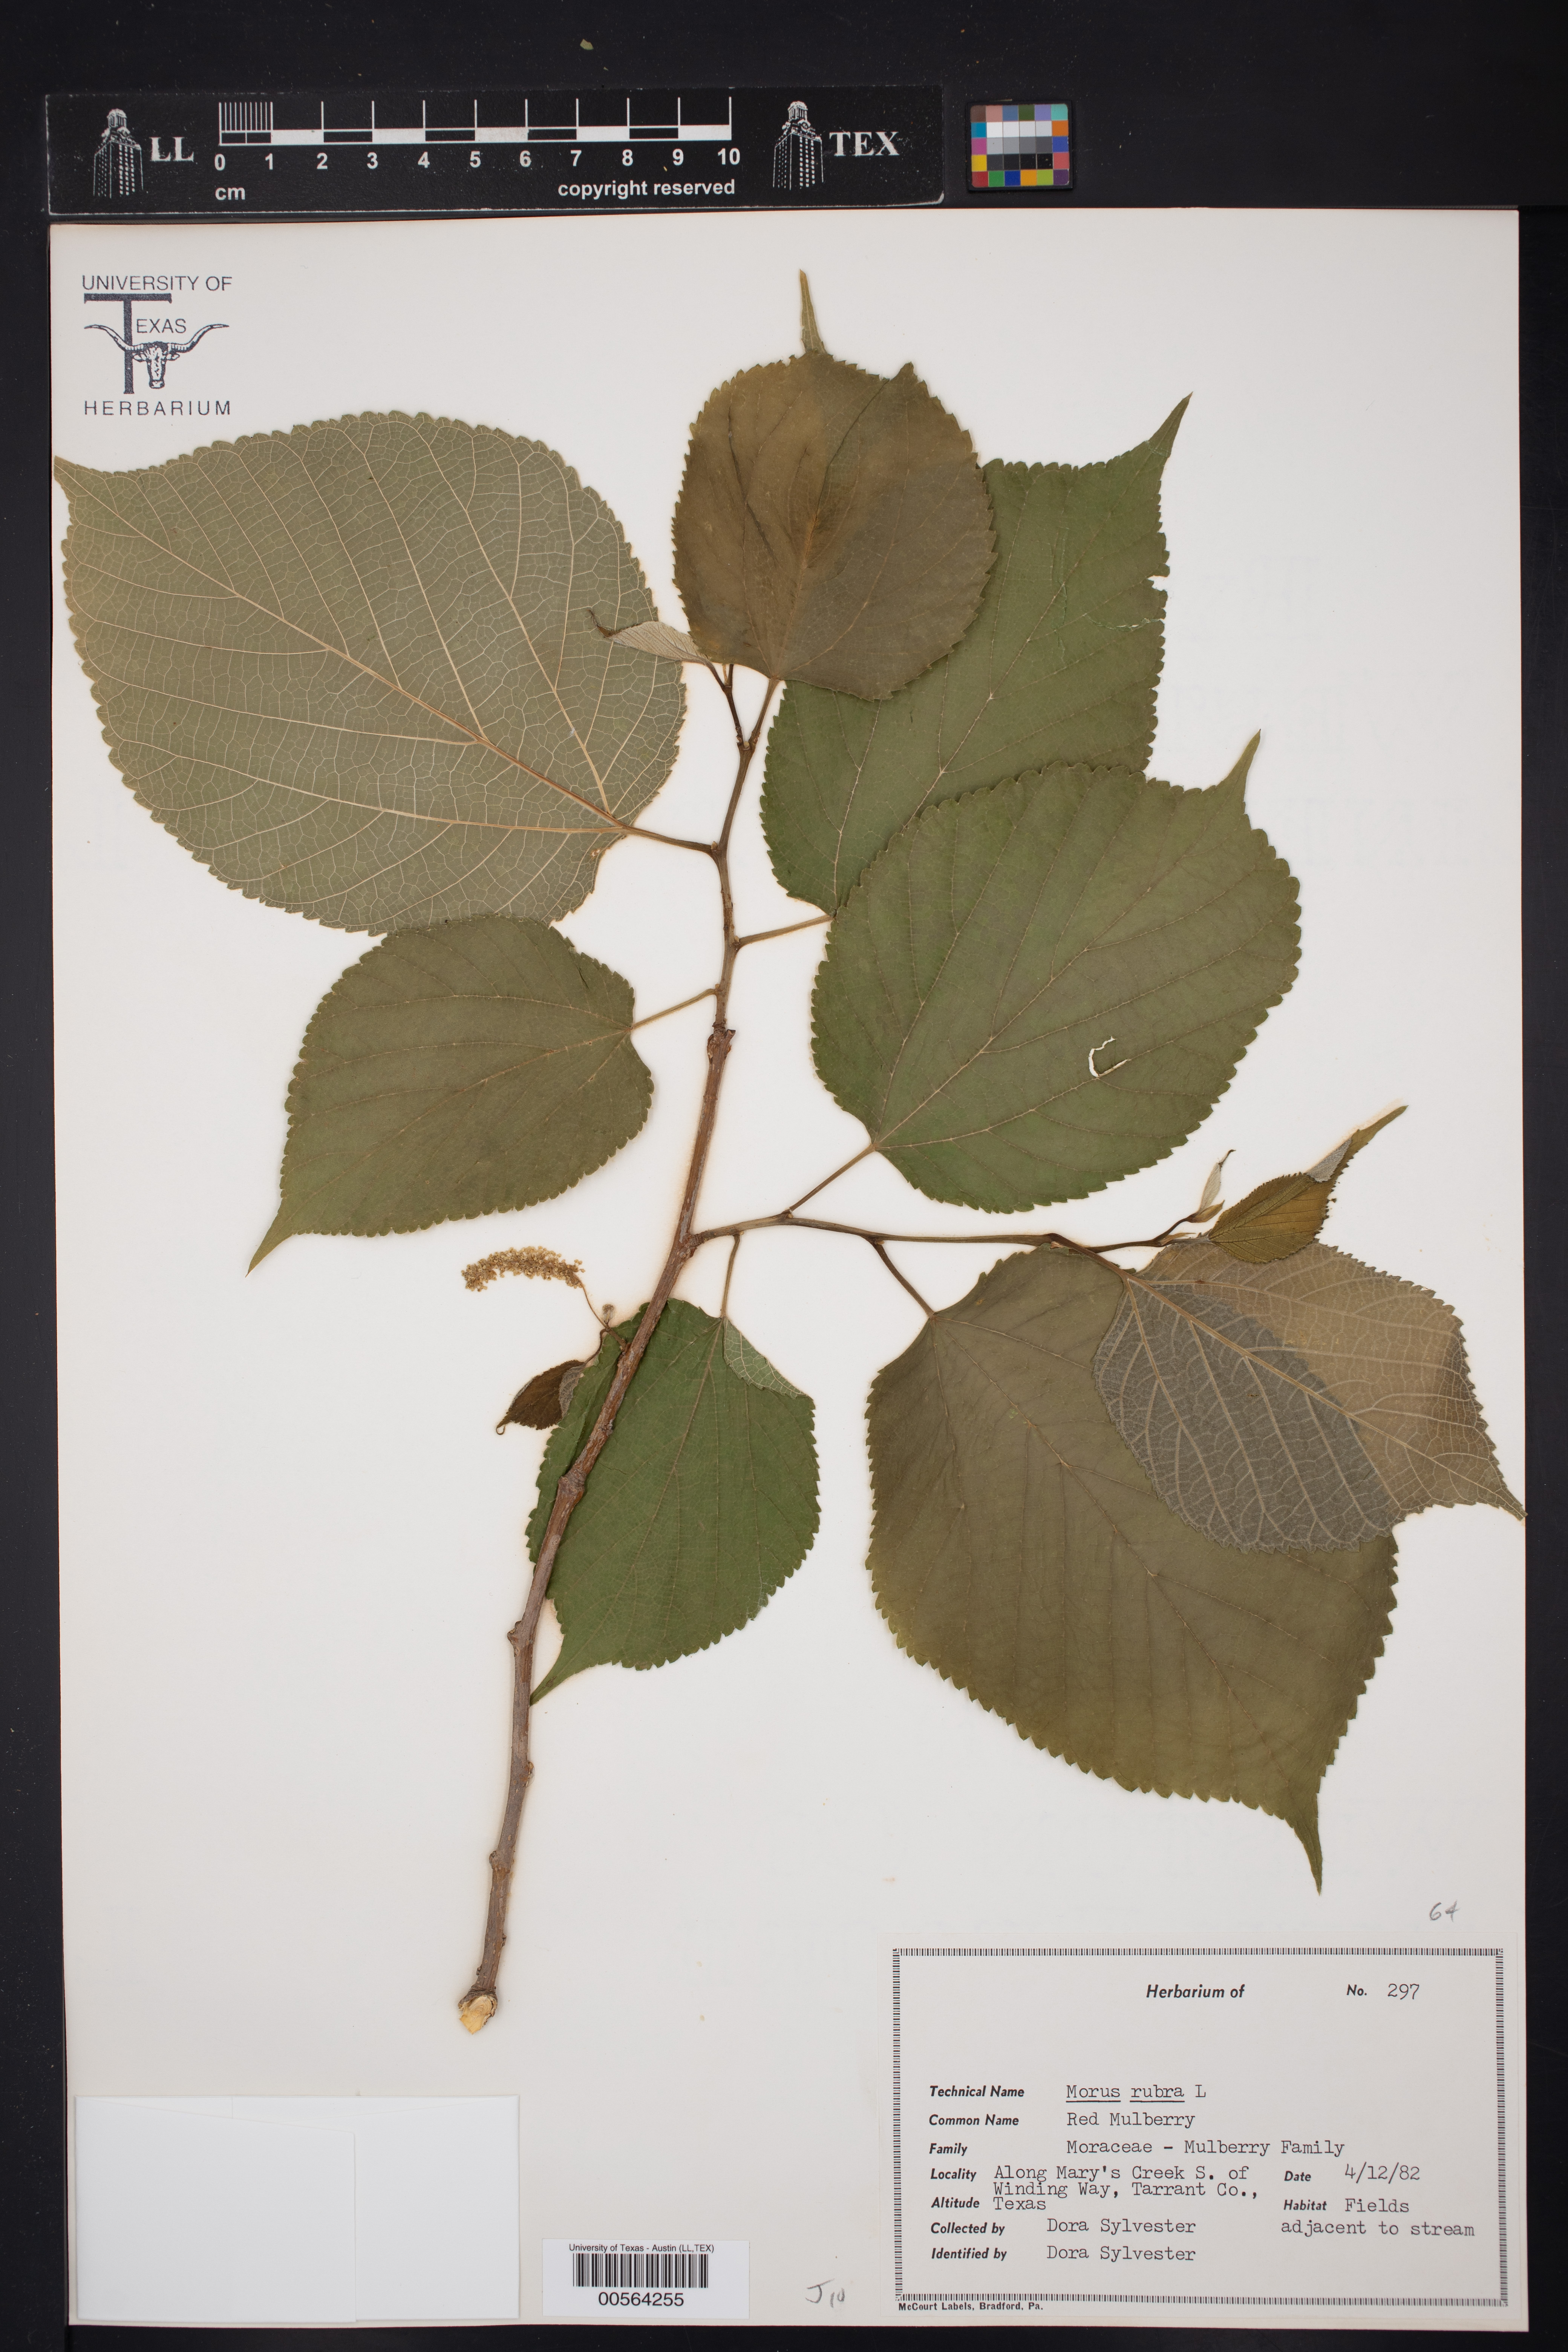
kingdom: Plantae
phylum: Tracheophyta
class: Magnoliopsida
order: Rosales
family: Moraceae
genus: Morus
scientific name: Morus rubra
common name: Red mulberry
